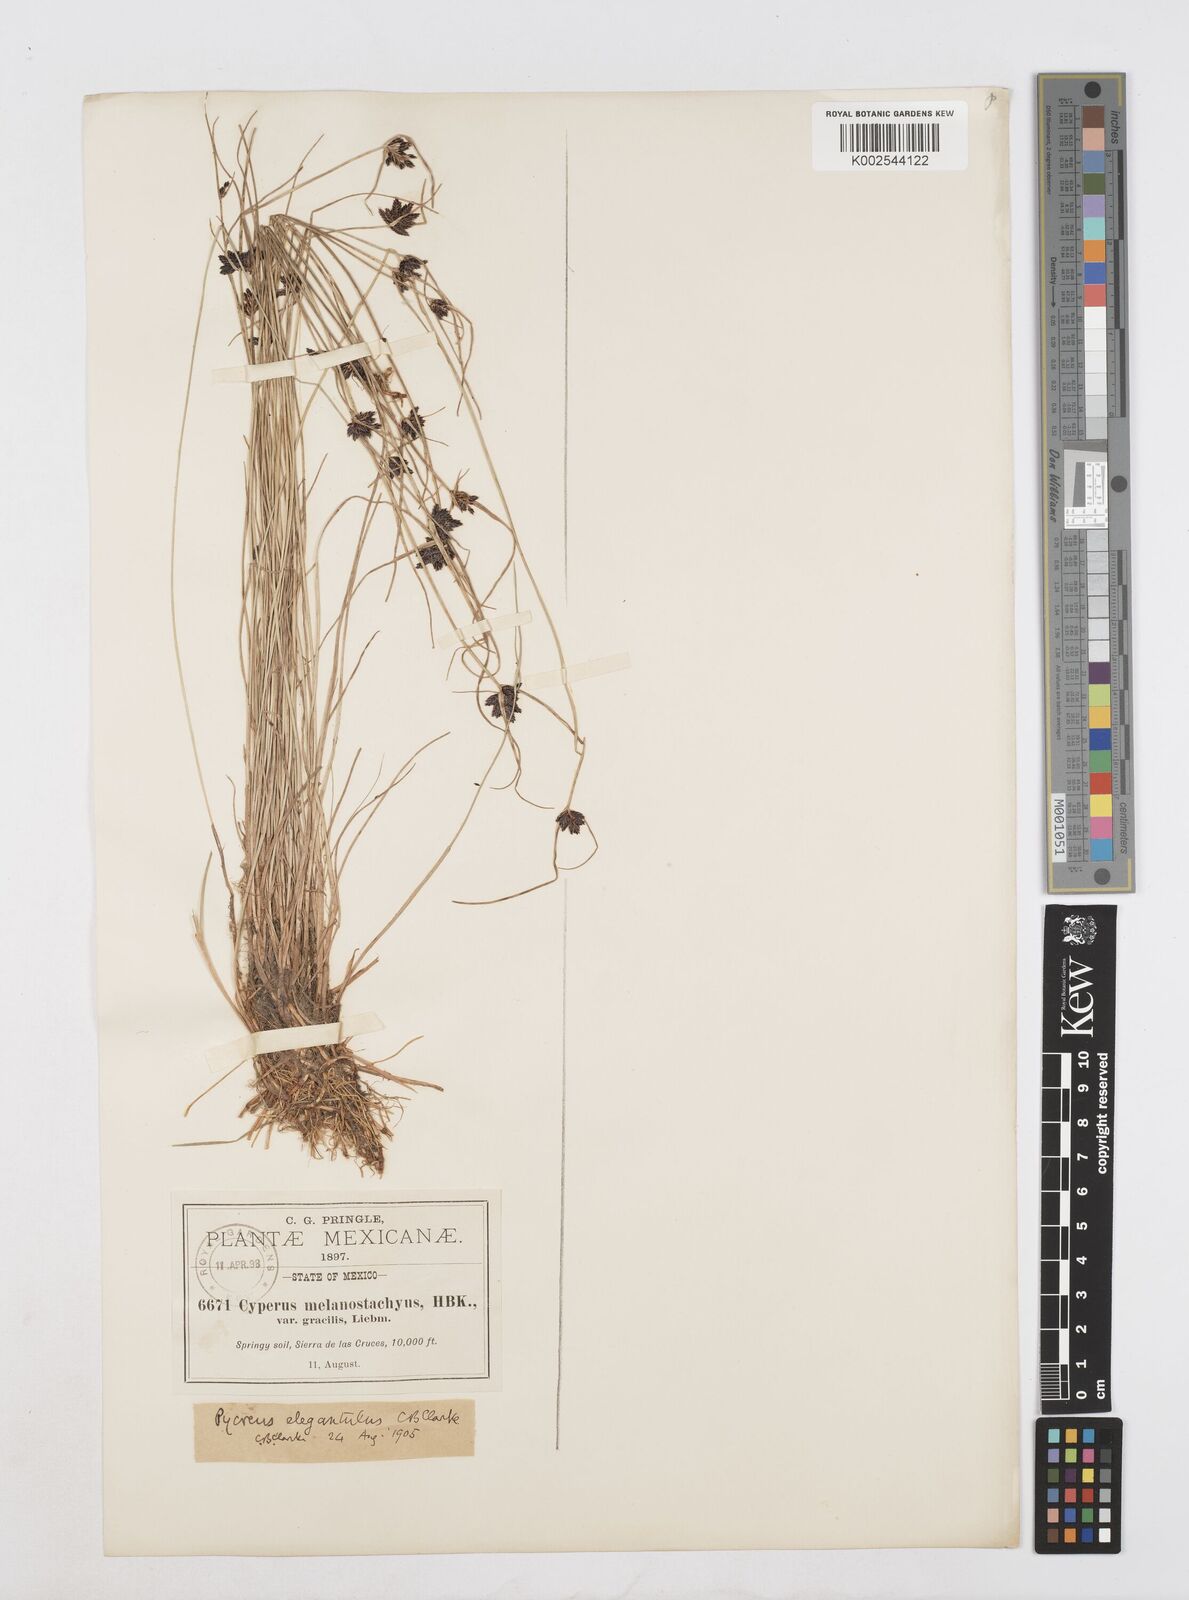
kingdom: Plantae
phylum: Tracheophyta
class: Liliopsida
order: Poales
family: Cyperaceae
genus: Cyperus
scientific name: Cyperus melanostachyus
